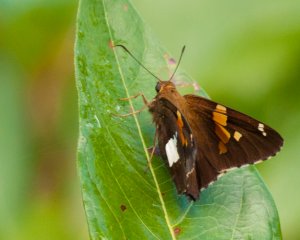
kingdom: Animalia
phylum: Arthropoda
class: Insecta
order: Lepidoptera
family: Hesperiidae
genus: Epargyreus
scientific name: Epargyreus clarus
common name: Silver-spotted Skipper
